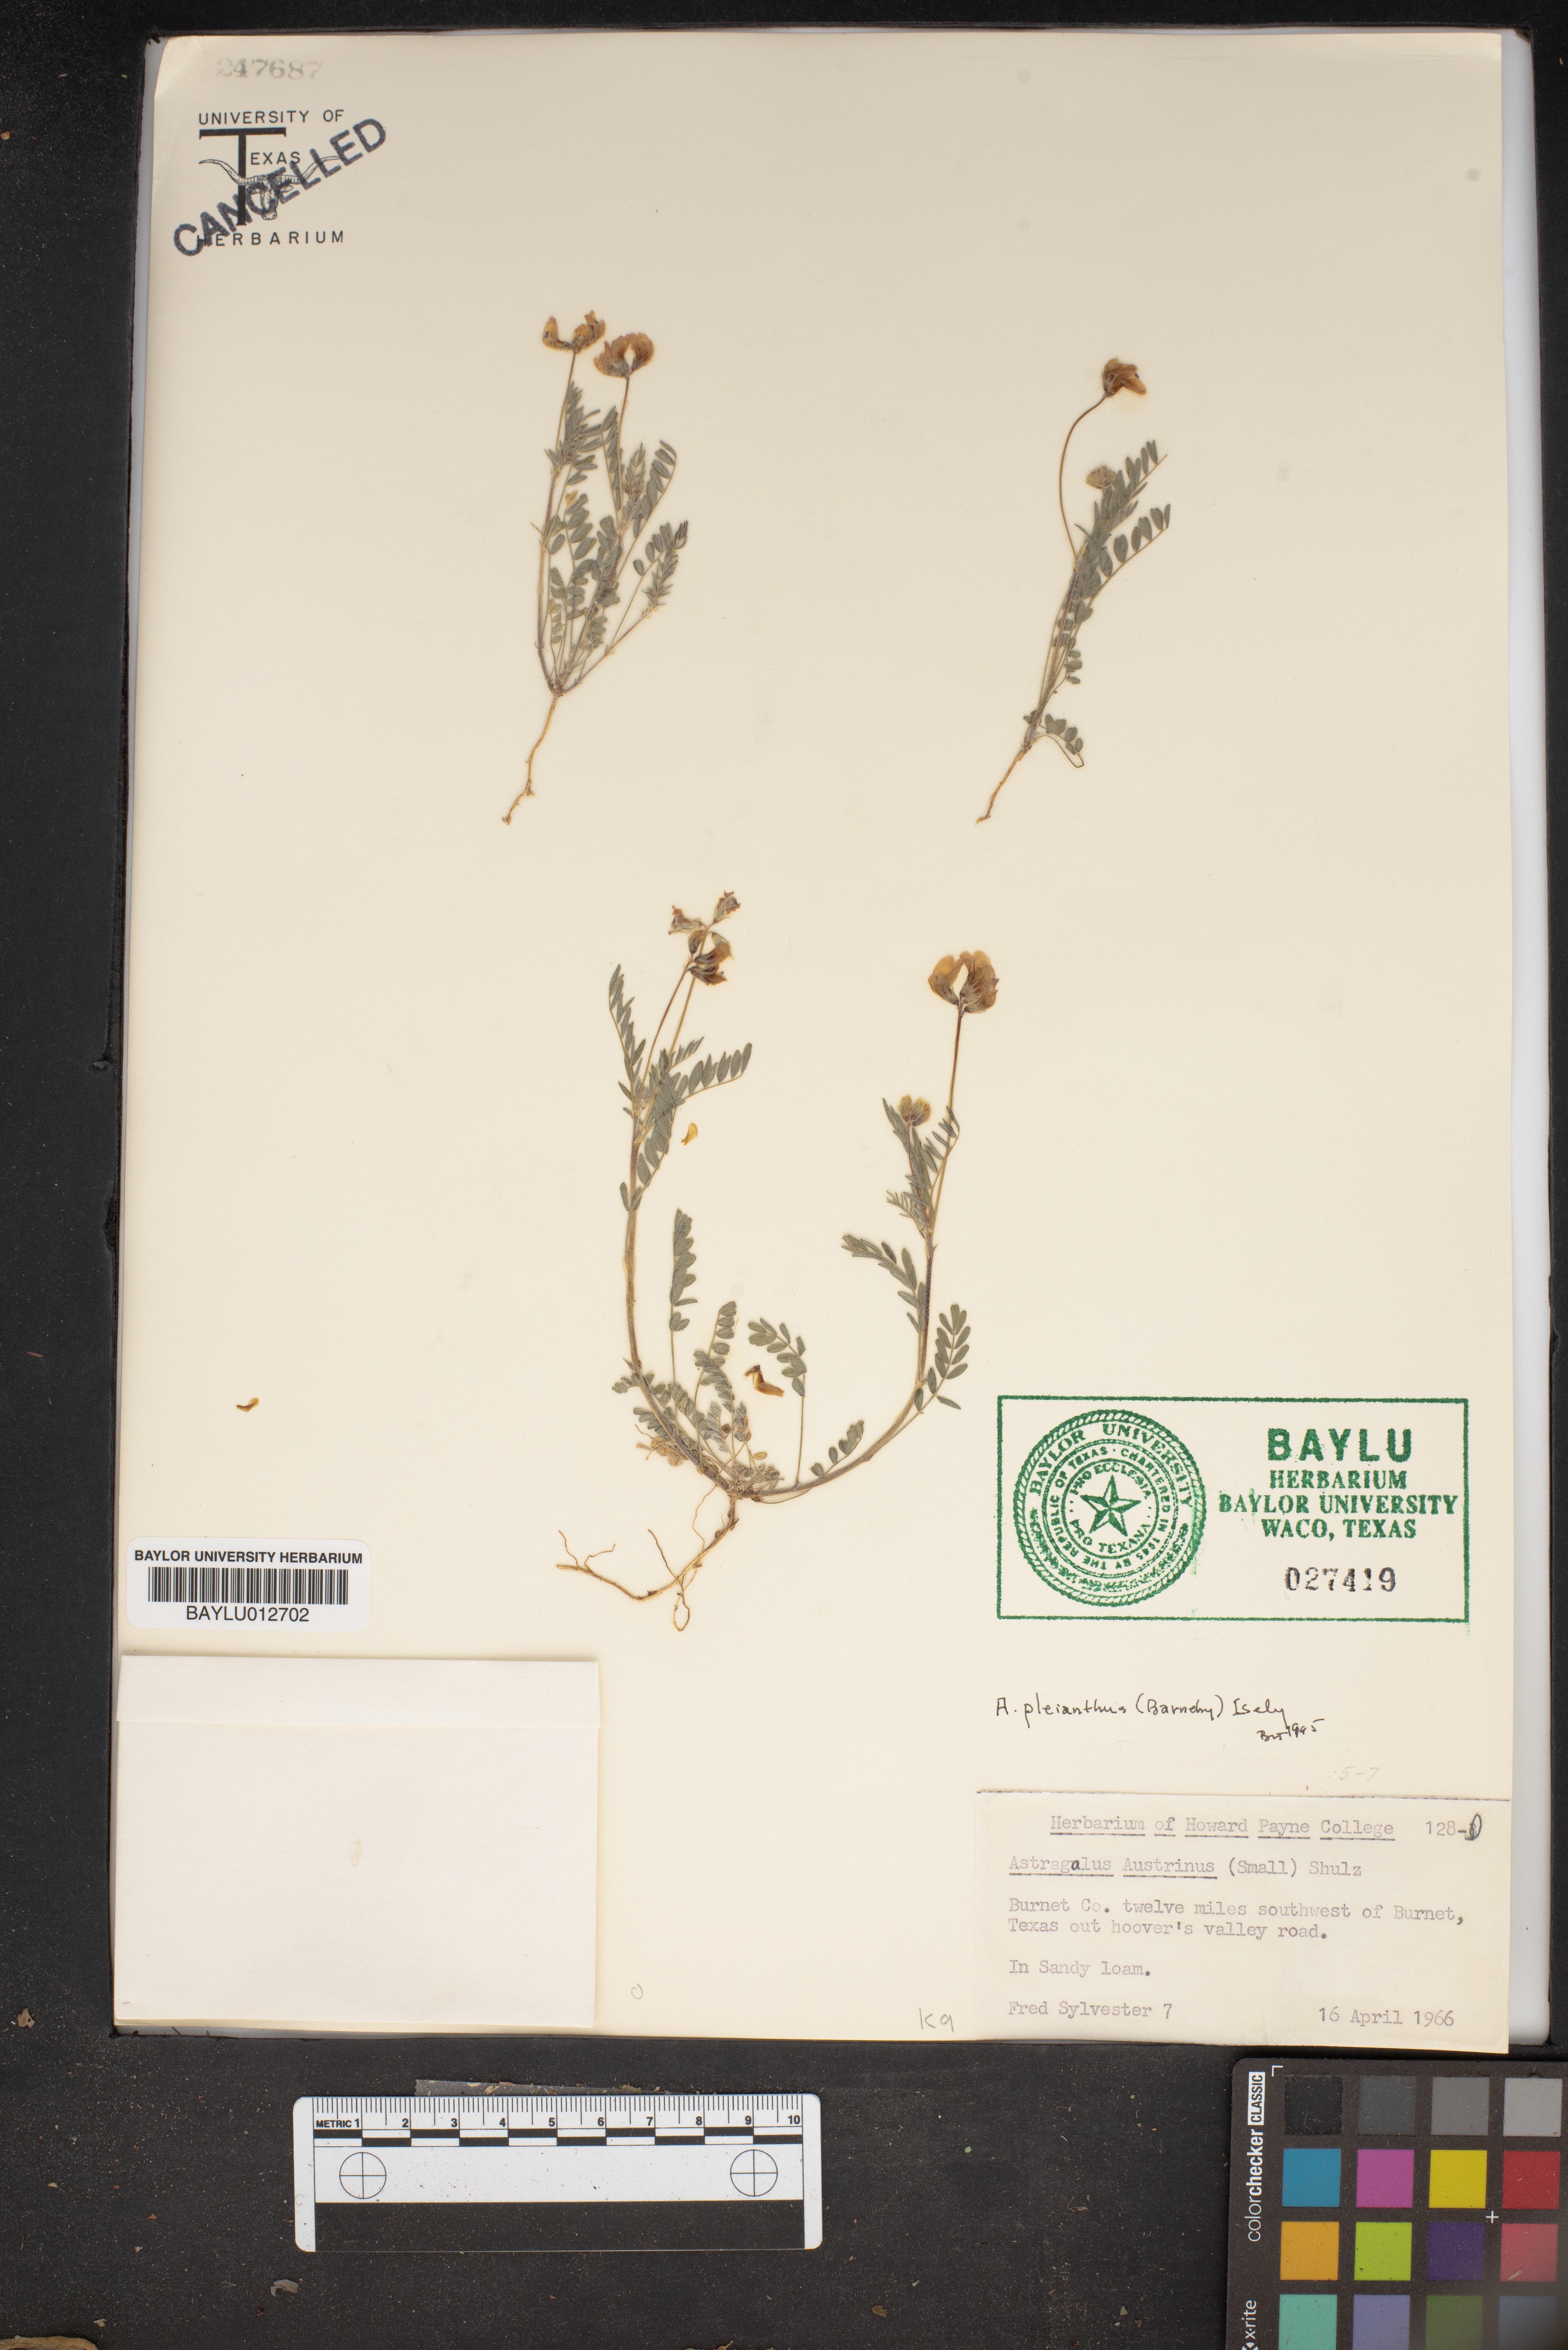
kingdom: Plantae
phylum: Tracheophyta
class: Magnoliopsida
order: Fabales
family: Fabaceae
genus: Astragalus
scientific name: Astragalus nuttallianus
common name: Smallflowered milkvetch
